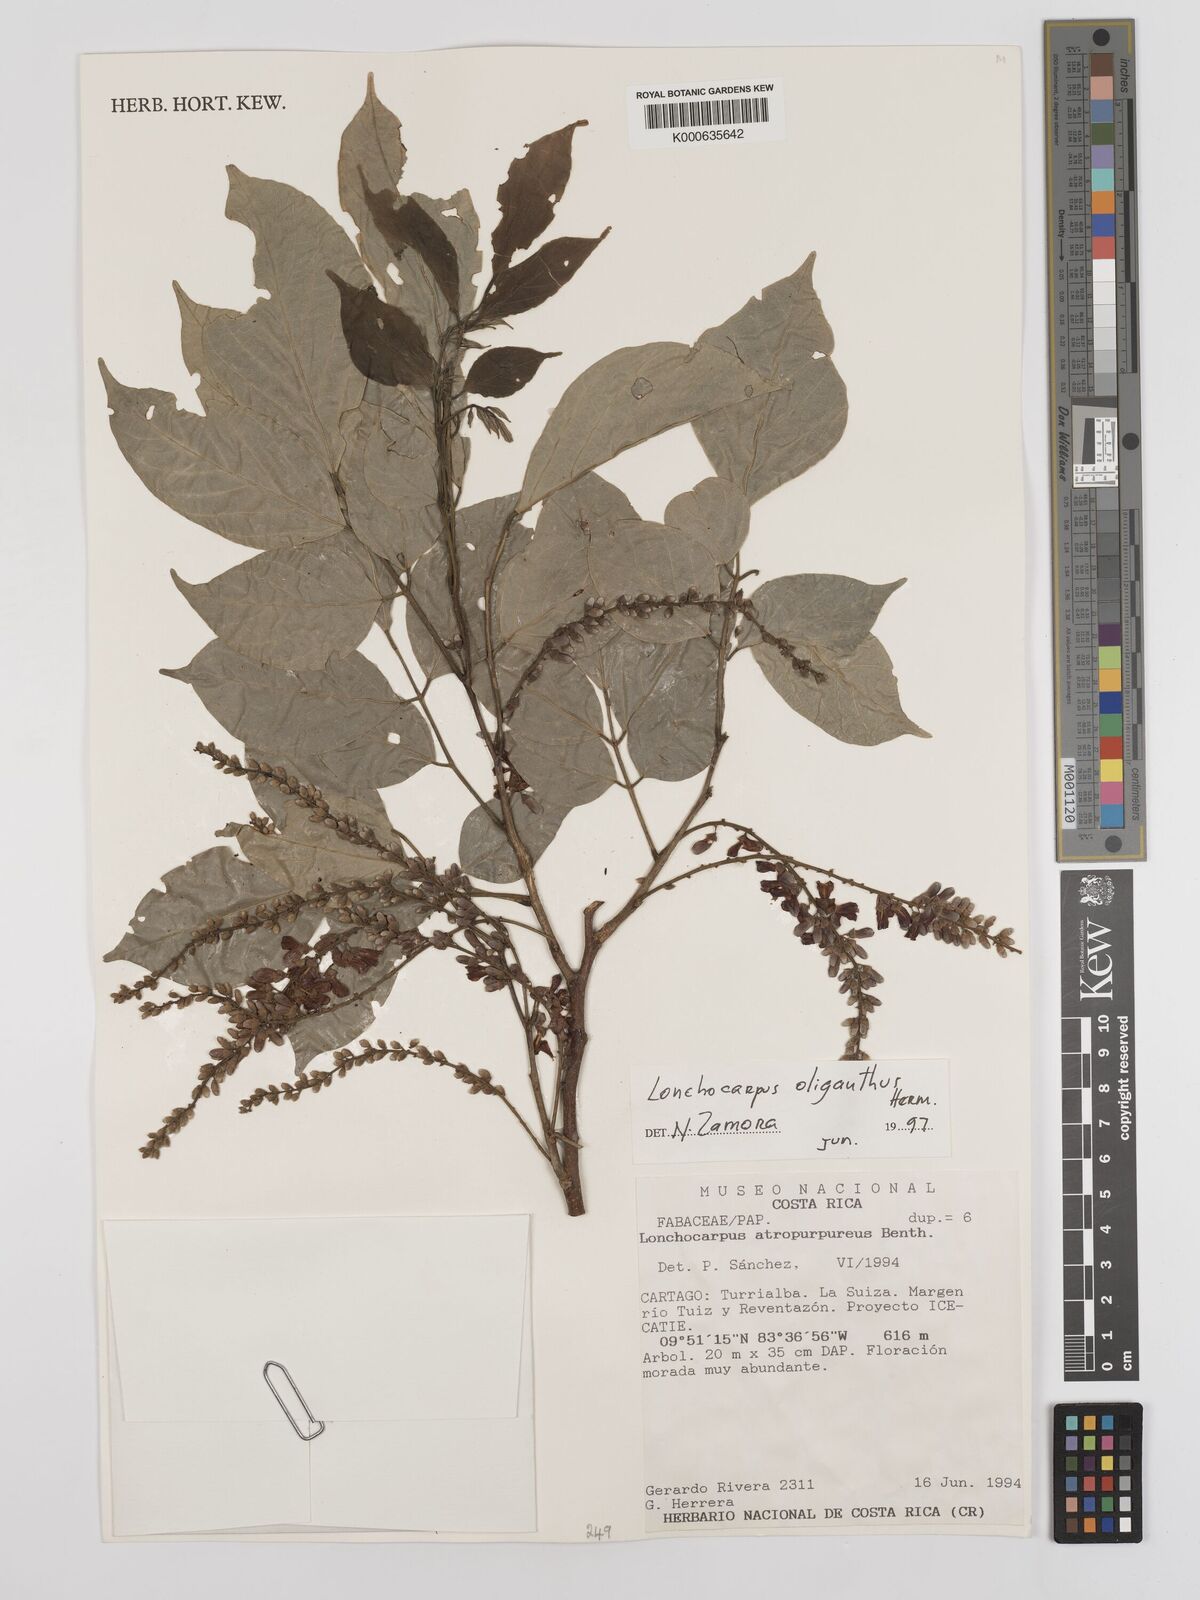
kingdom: Plantae
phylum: Tracheophyta
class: Magnoliopsida
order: Fabales
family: Fabaceae
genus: Lonchocarpus
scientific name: Lonchocarpus oliganthus
